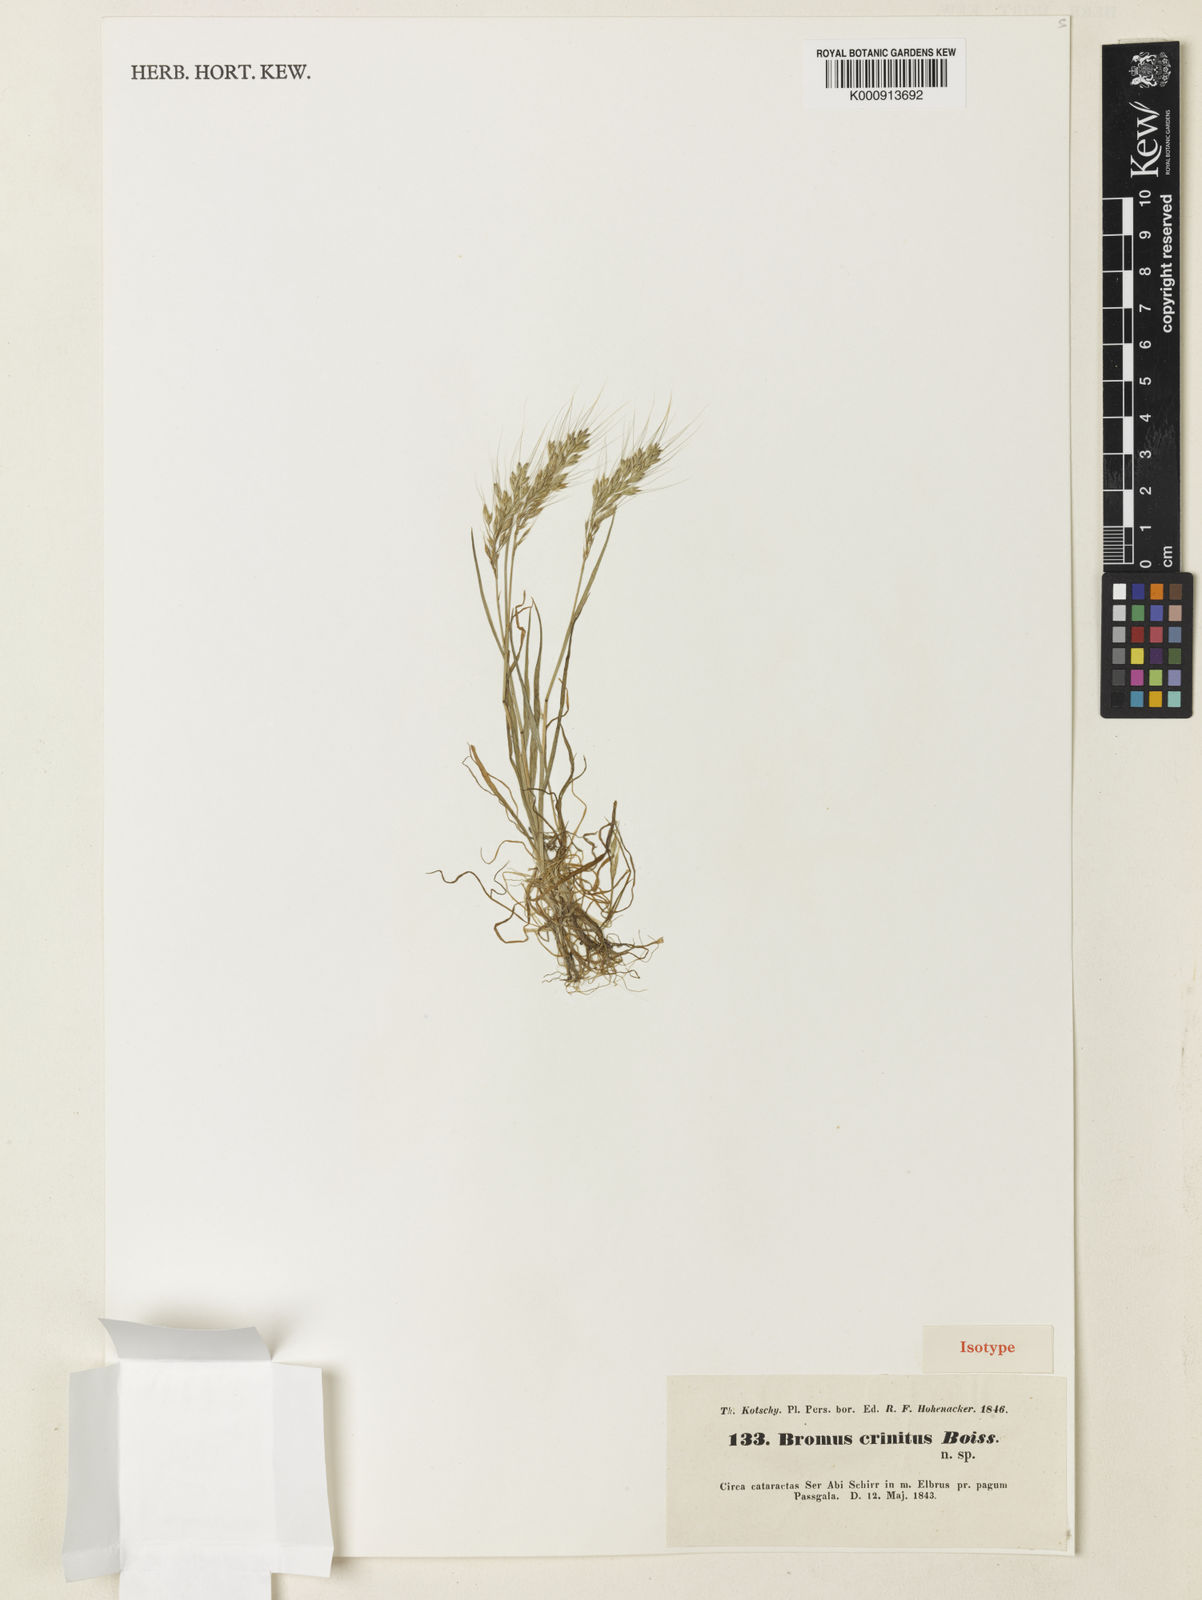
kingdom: Plantae
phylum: Tracheophyta
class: Liliopsida
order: Poales
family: Poaceae
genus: Bromus
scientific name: Bromus gracillimus
